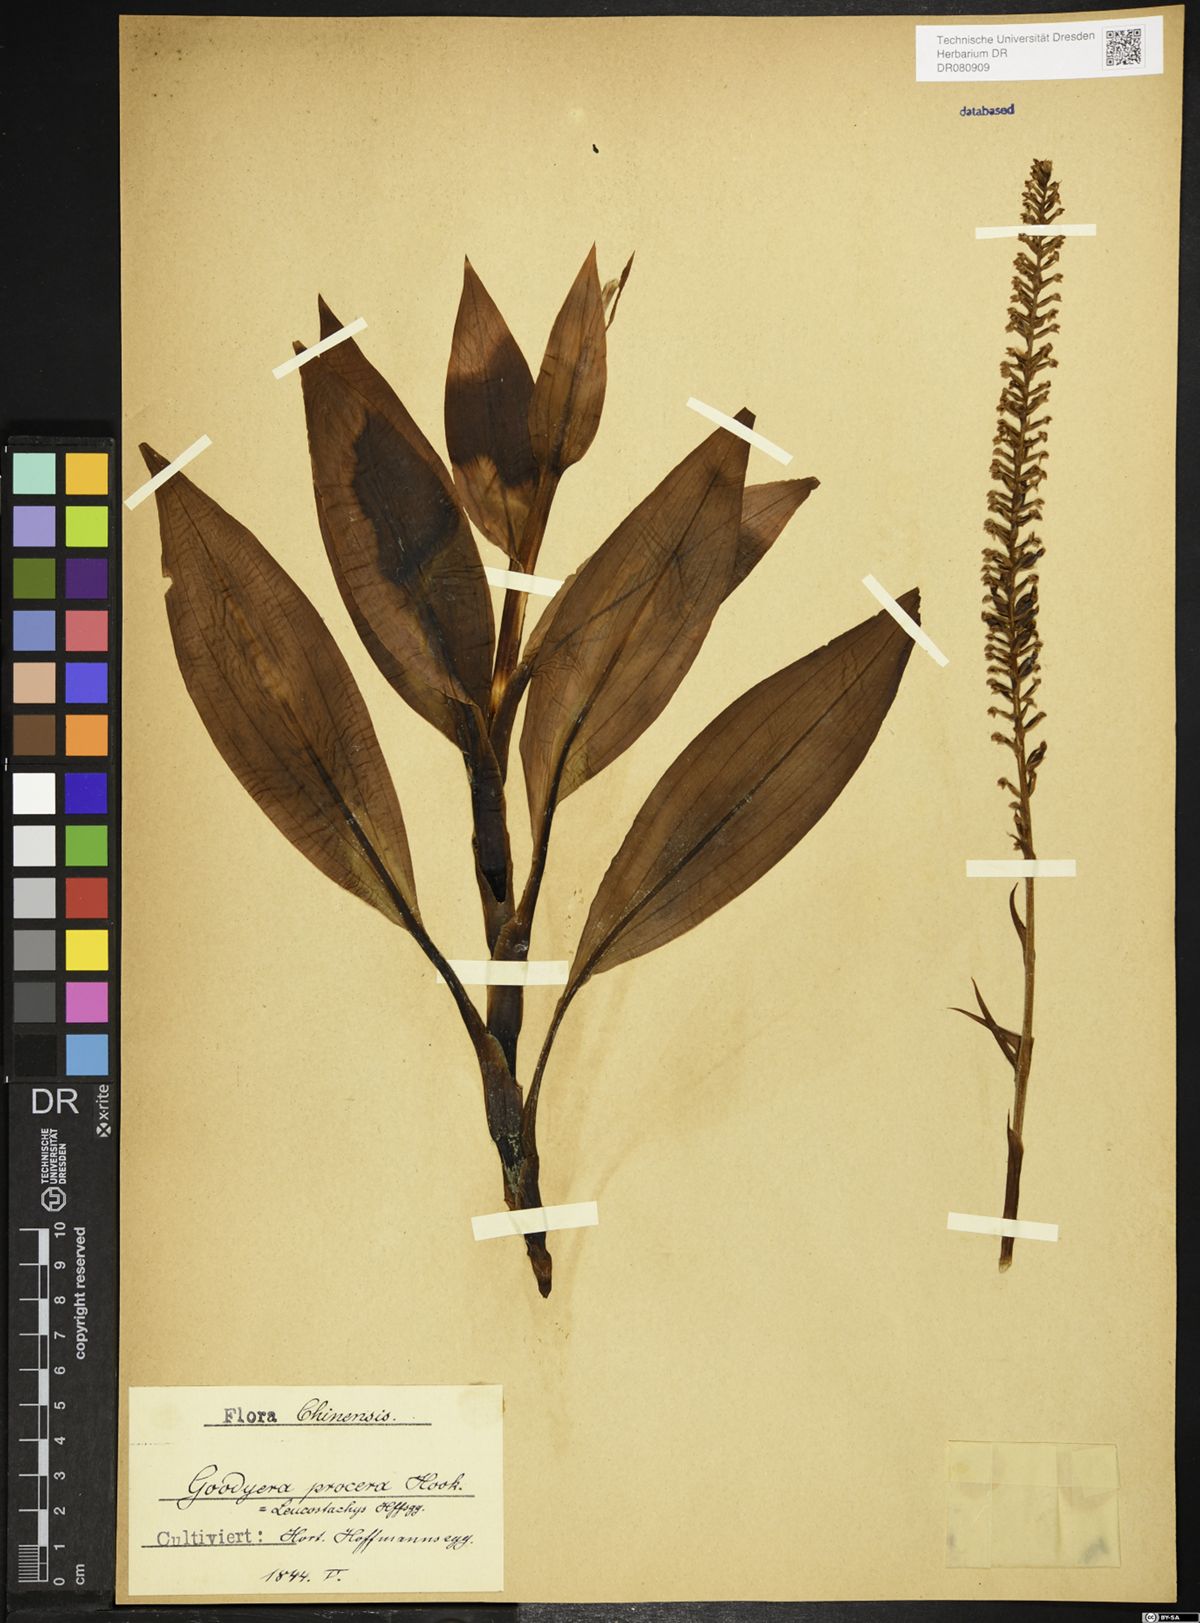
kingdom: Plantae
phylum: Tracheophyta
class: Liliopsida
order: Asparagales
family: Orchidaceae
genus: Goodyera
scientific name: Goodyera procera
